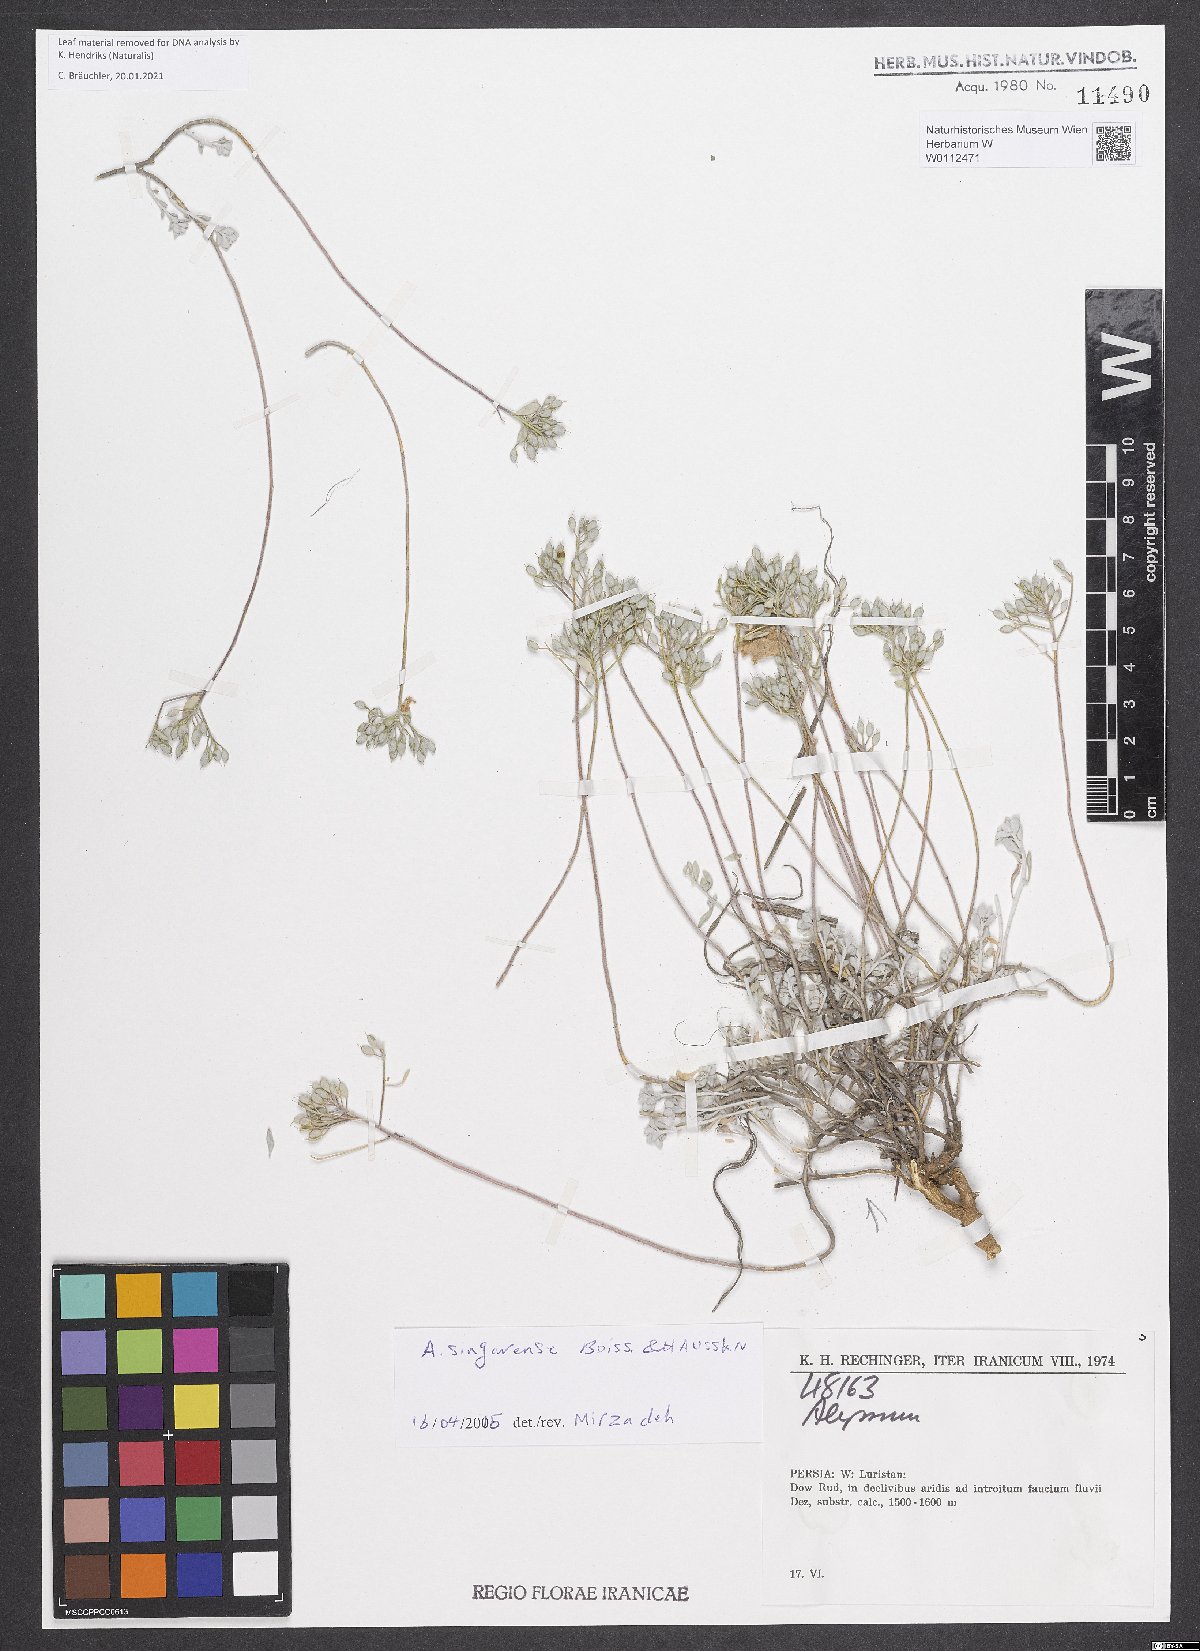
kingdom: Plantae
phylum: Tracheophyta
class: Magnoliopsida
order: Brassicales
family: Brassicaceae
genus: Odontarrhena
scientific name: Odontarrhena singarensis
